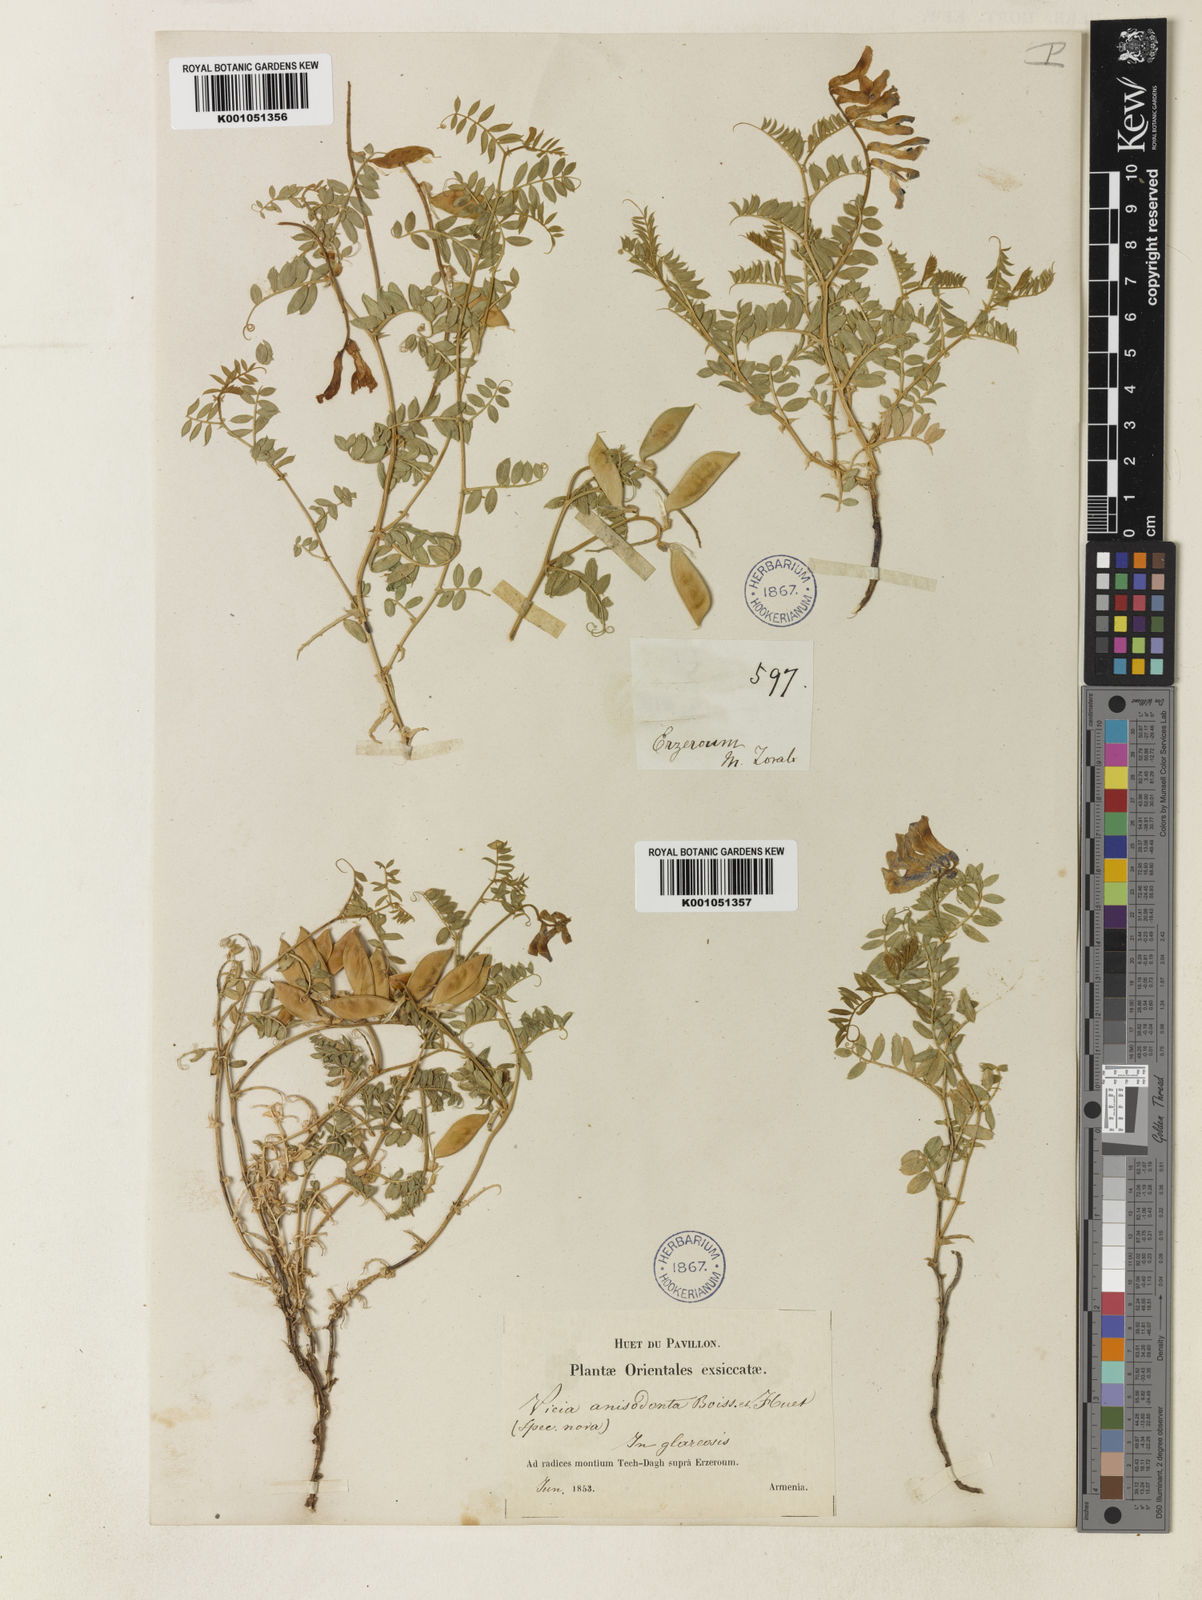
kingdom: Plantae
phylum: Tracheophyta
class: Magnoliopsida
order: Fabales
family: Fabaceae
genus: Vicia
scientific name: Vicia alpestris
